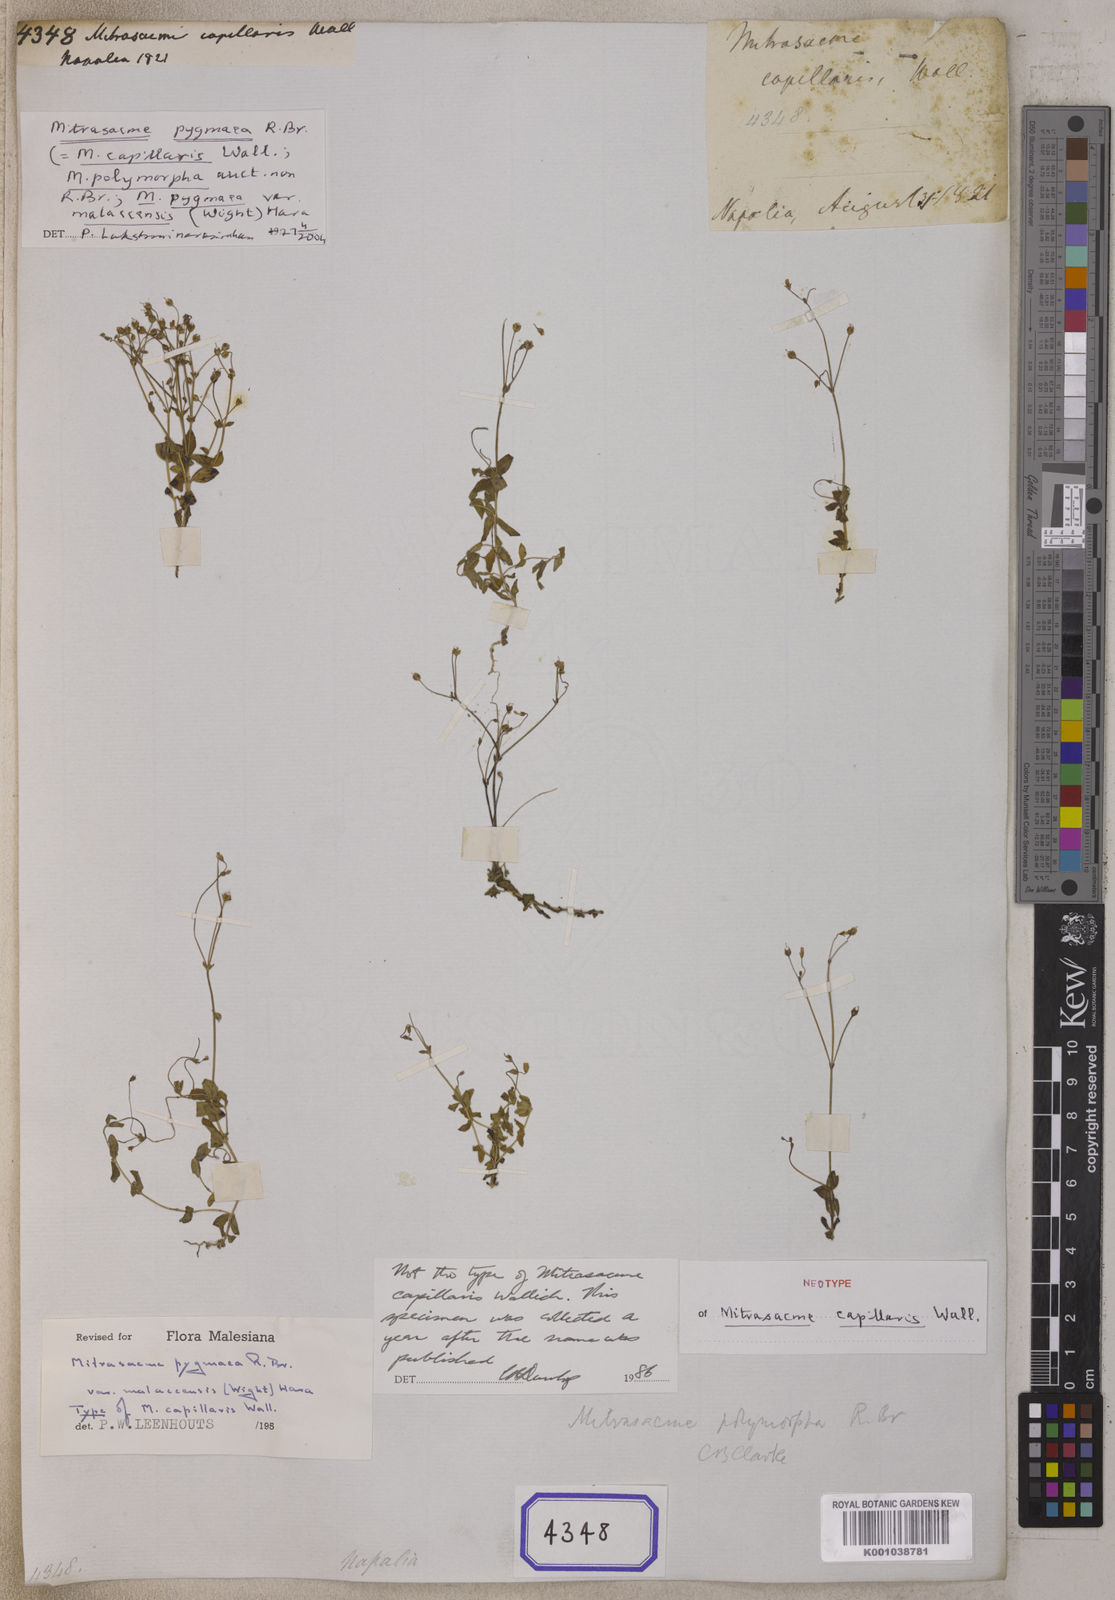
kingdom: Plantae
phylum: Tracheophyta
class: Magnoliopsida
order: Gentianales
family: Loganiaceae
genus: Mitrasacme
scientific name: Mitrasacme pygmaea
